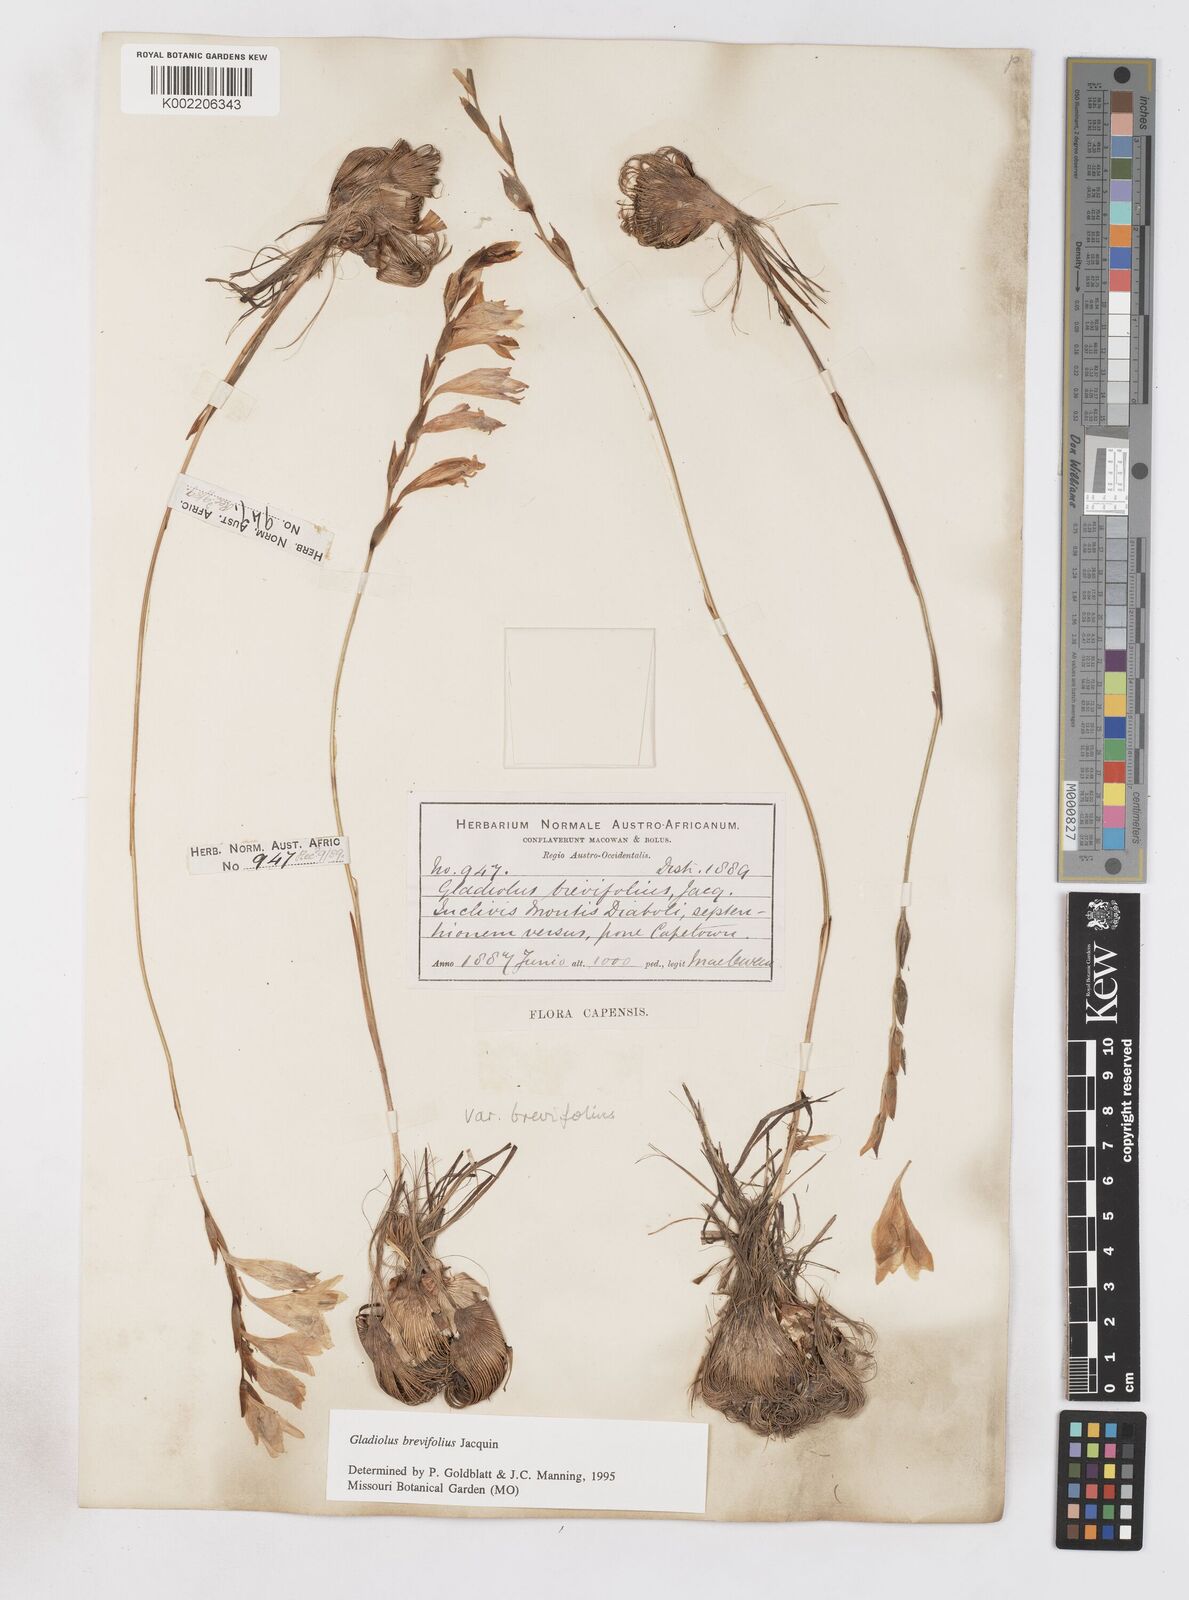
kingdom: Plantae
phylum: Tracheophyta
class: Liliopsida
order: Asparagales
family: Iridaceae
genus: Gladiolus
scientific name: Gladiolus brevifolius
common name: March pypie
